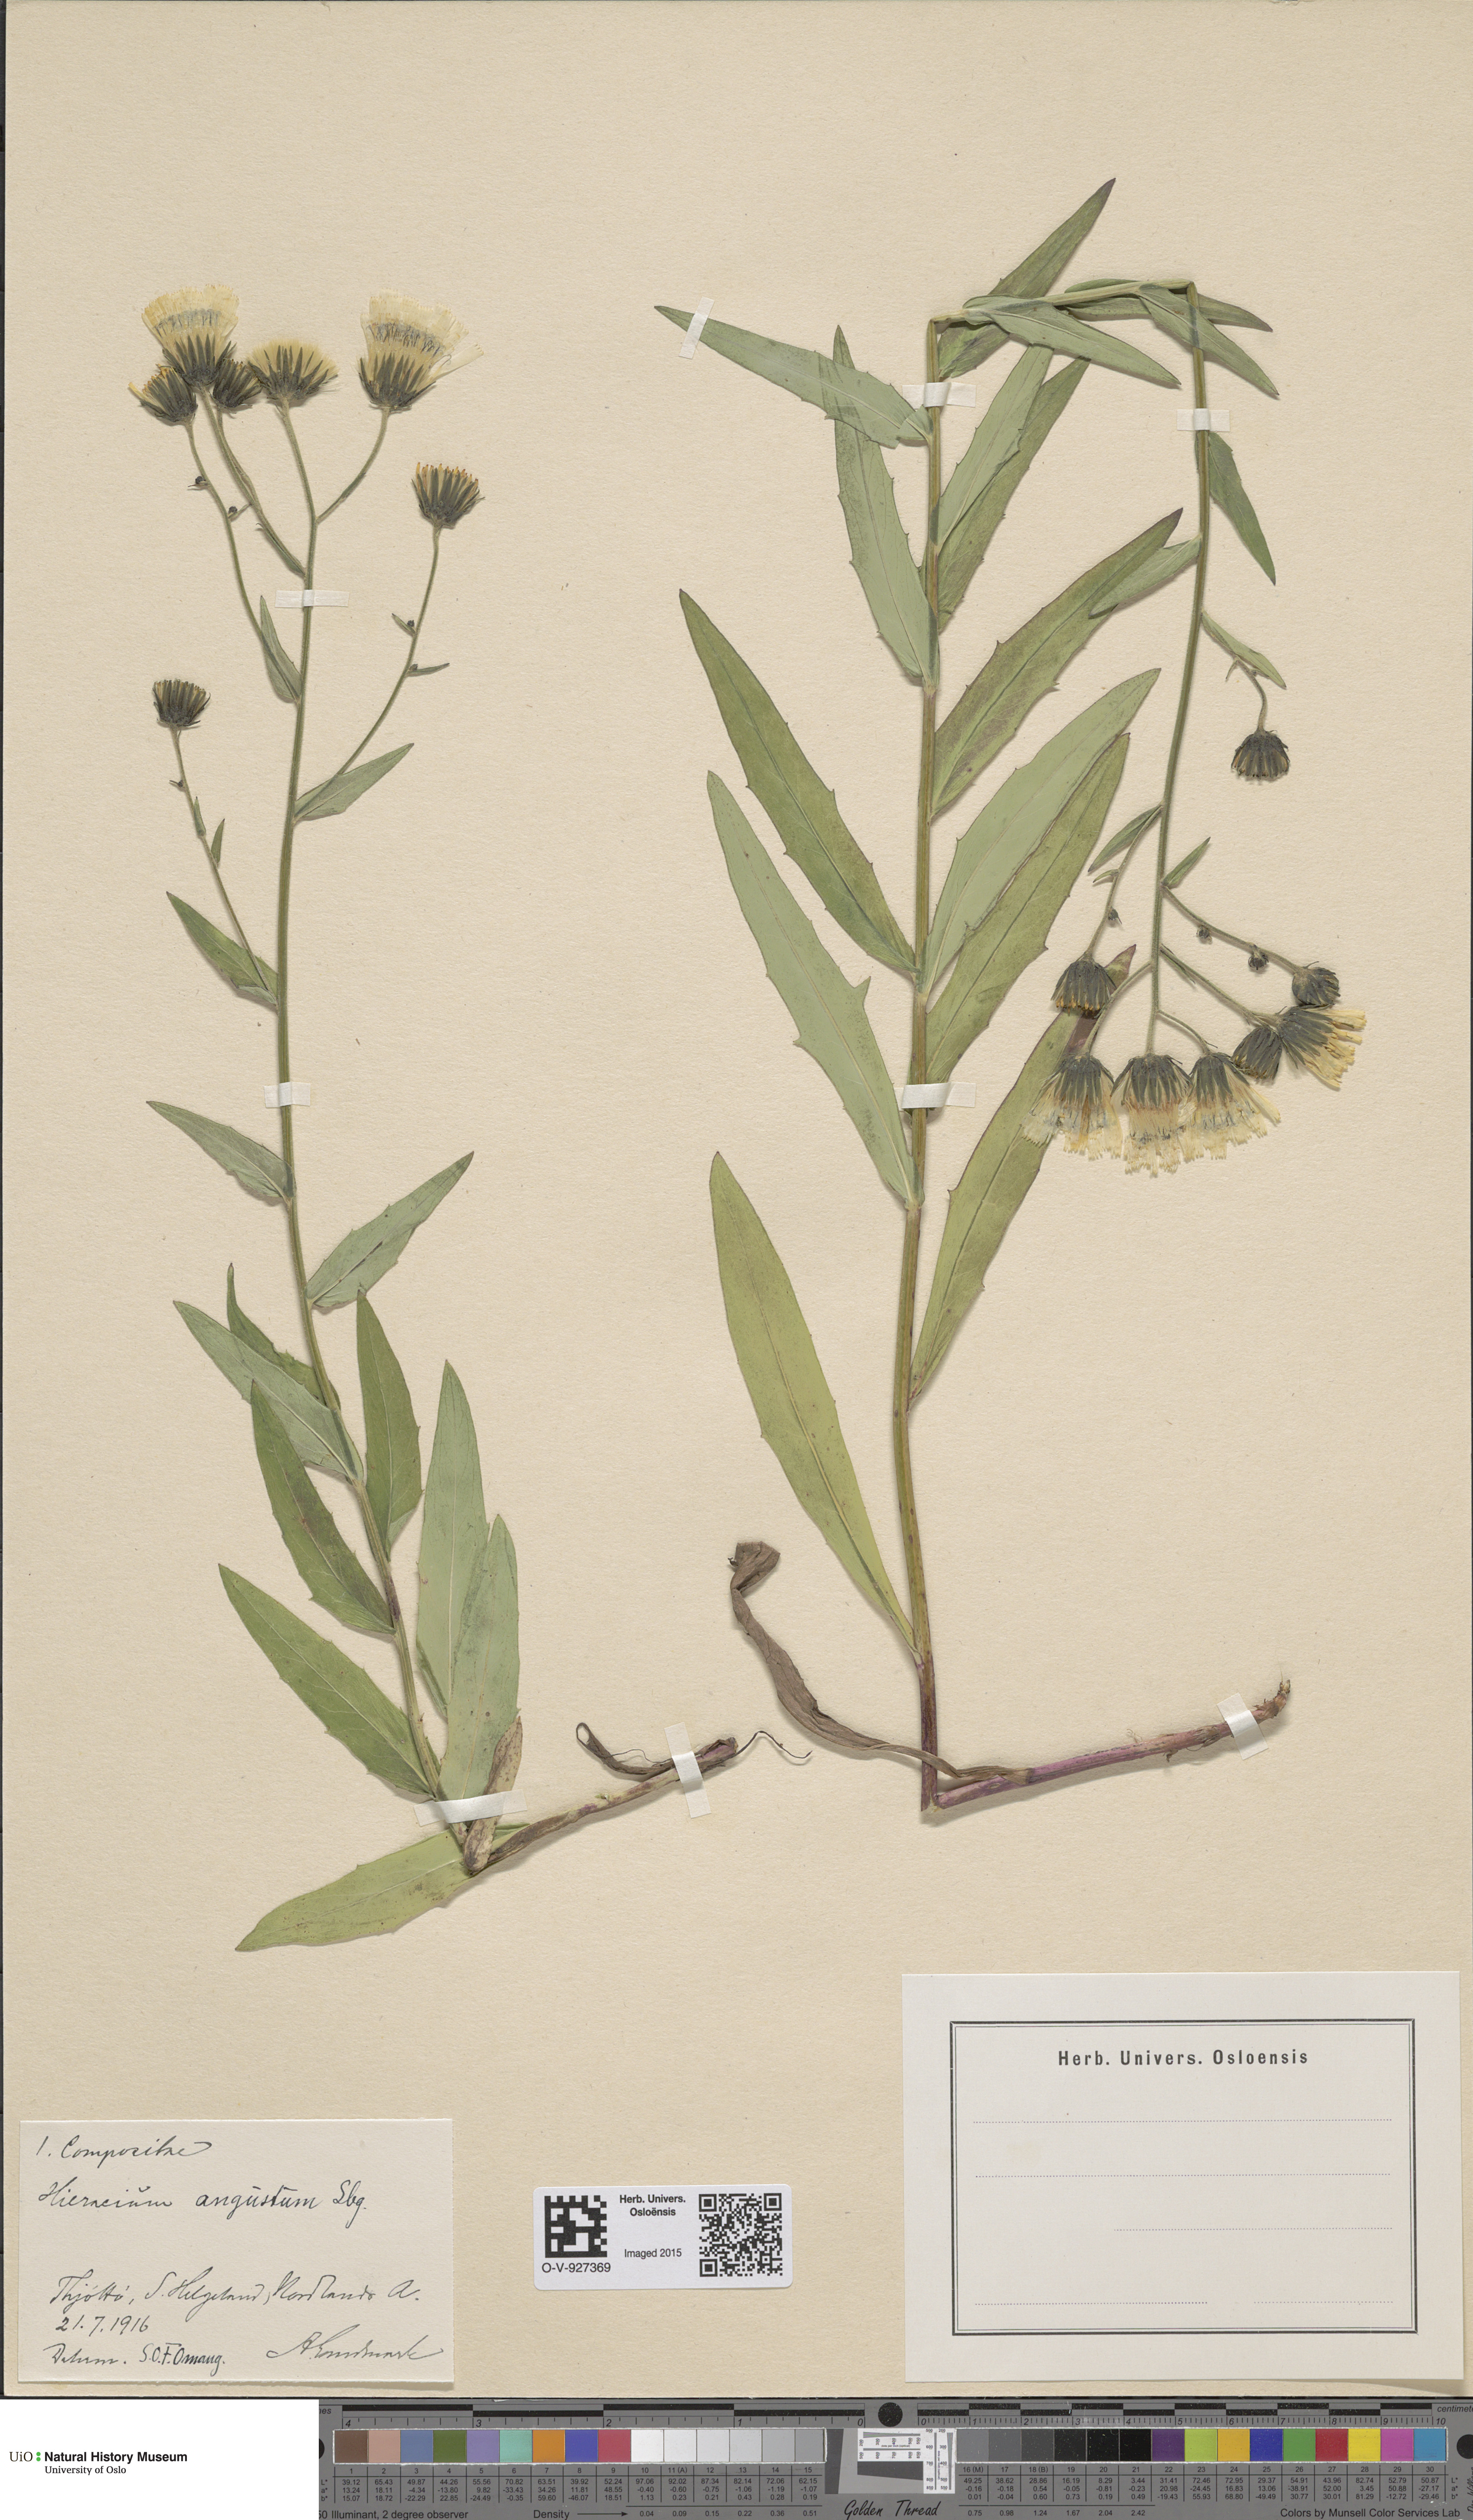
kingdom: Plantae
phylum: Tracheophyta
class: Magnoliopsida
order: Asterales
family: Asteraceae
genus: Hieracium
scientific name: Hieracium angustum
